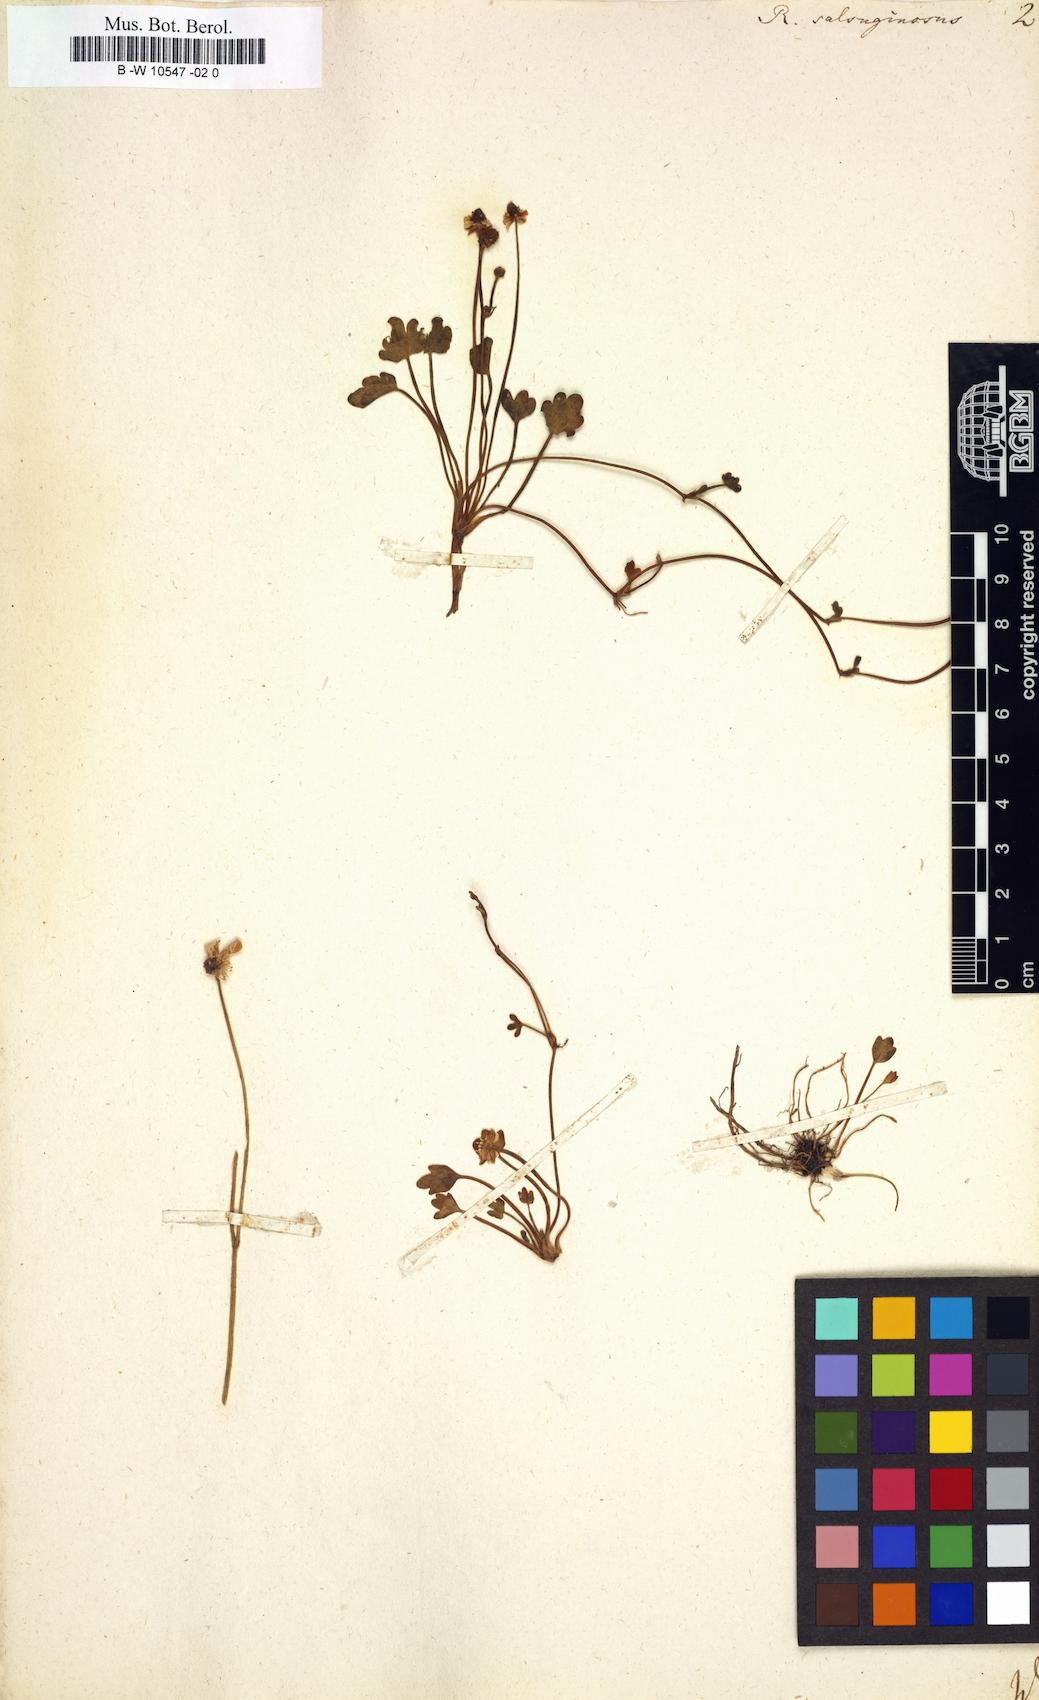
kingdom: Plantae
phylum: Tracheophyta
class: Magnoliopsida
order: Ranunculales
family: Ranunculaceae
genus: Halerpestes
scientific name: Halerpestes ruthenica
